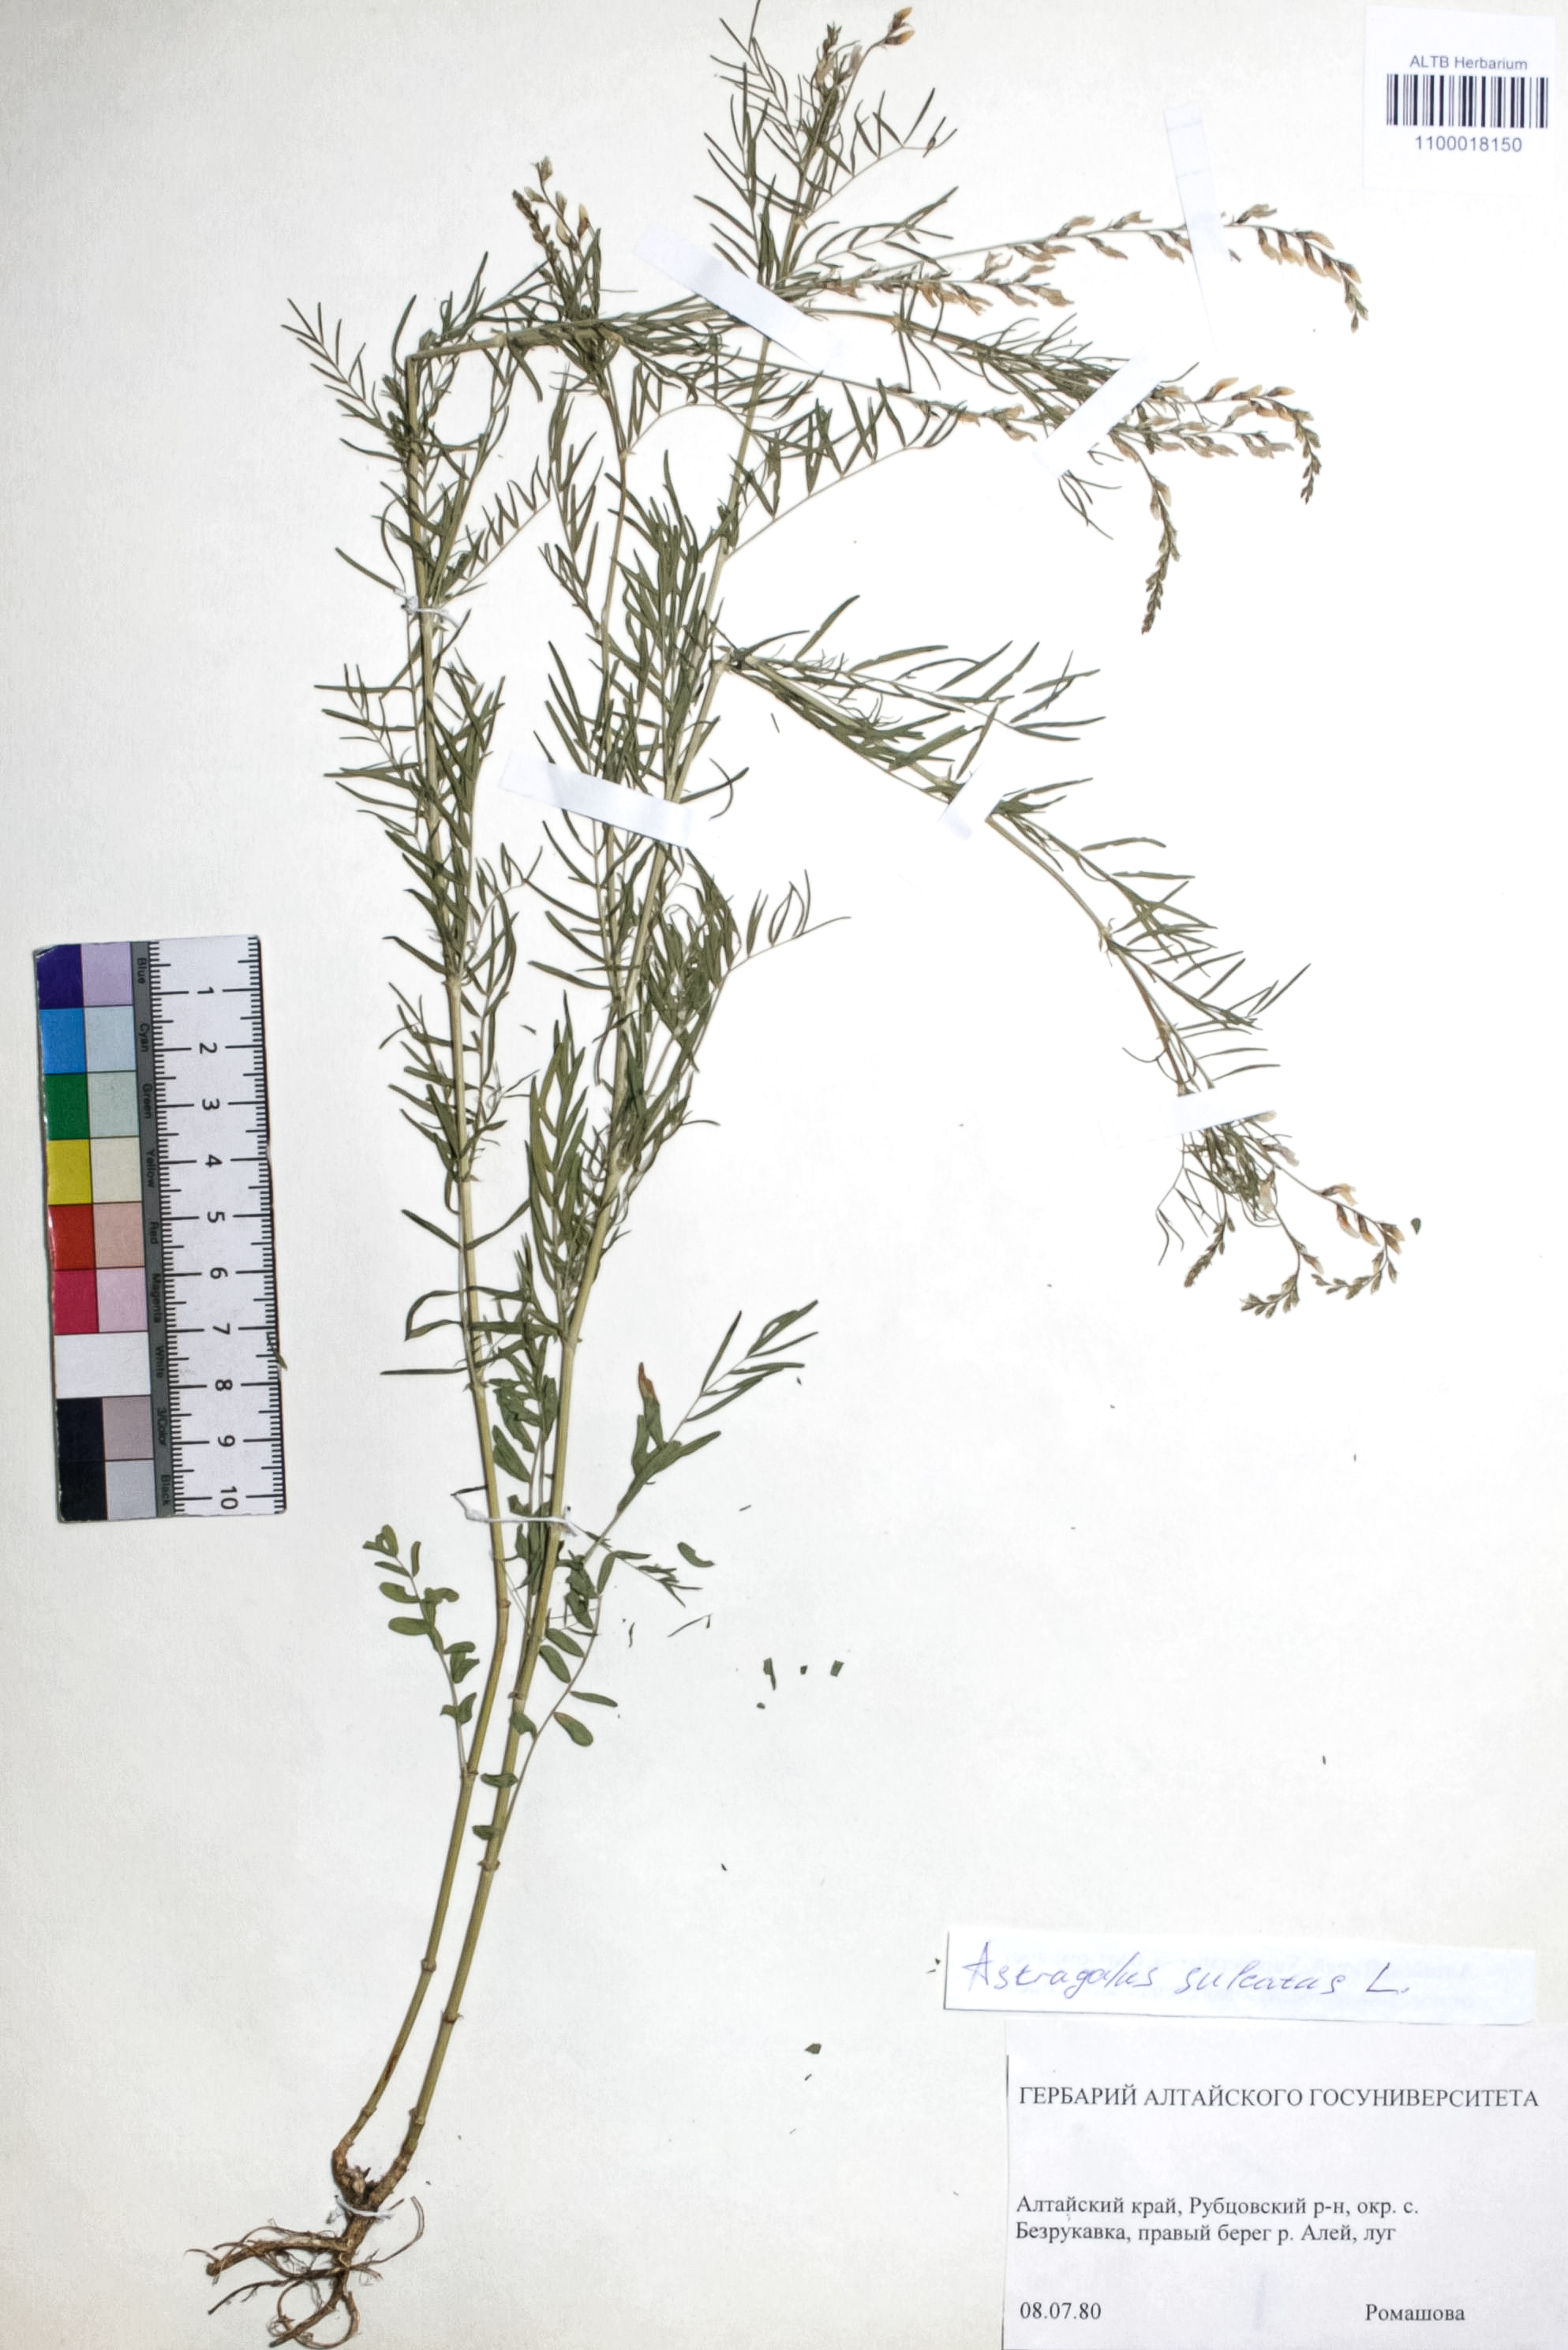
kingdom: Plantae
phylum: Tracheophyta
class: Magnoliopsida
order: Fabales
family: Fabaceae
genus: Astragalus
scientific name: Astragalus sulcatus
